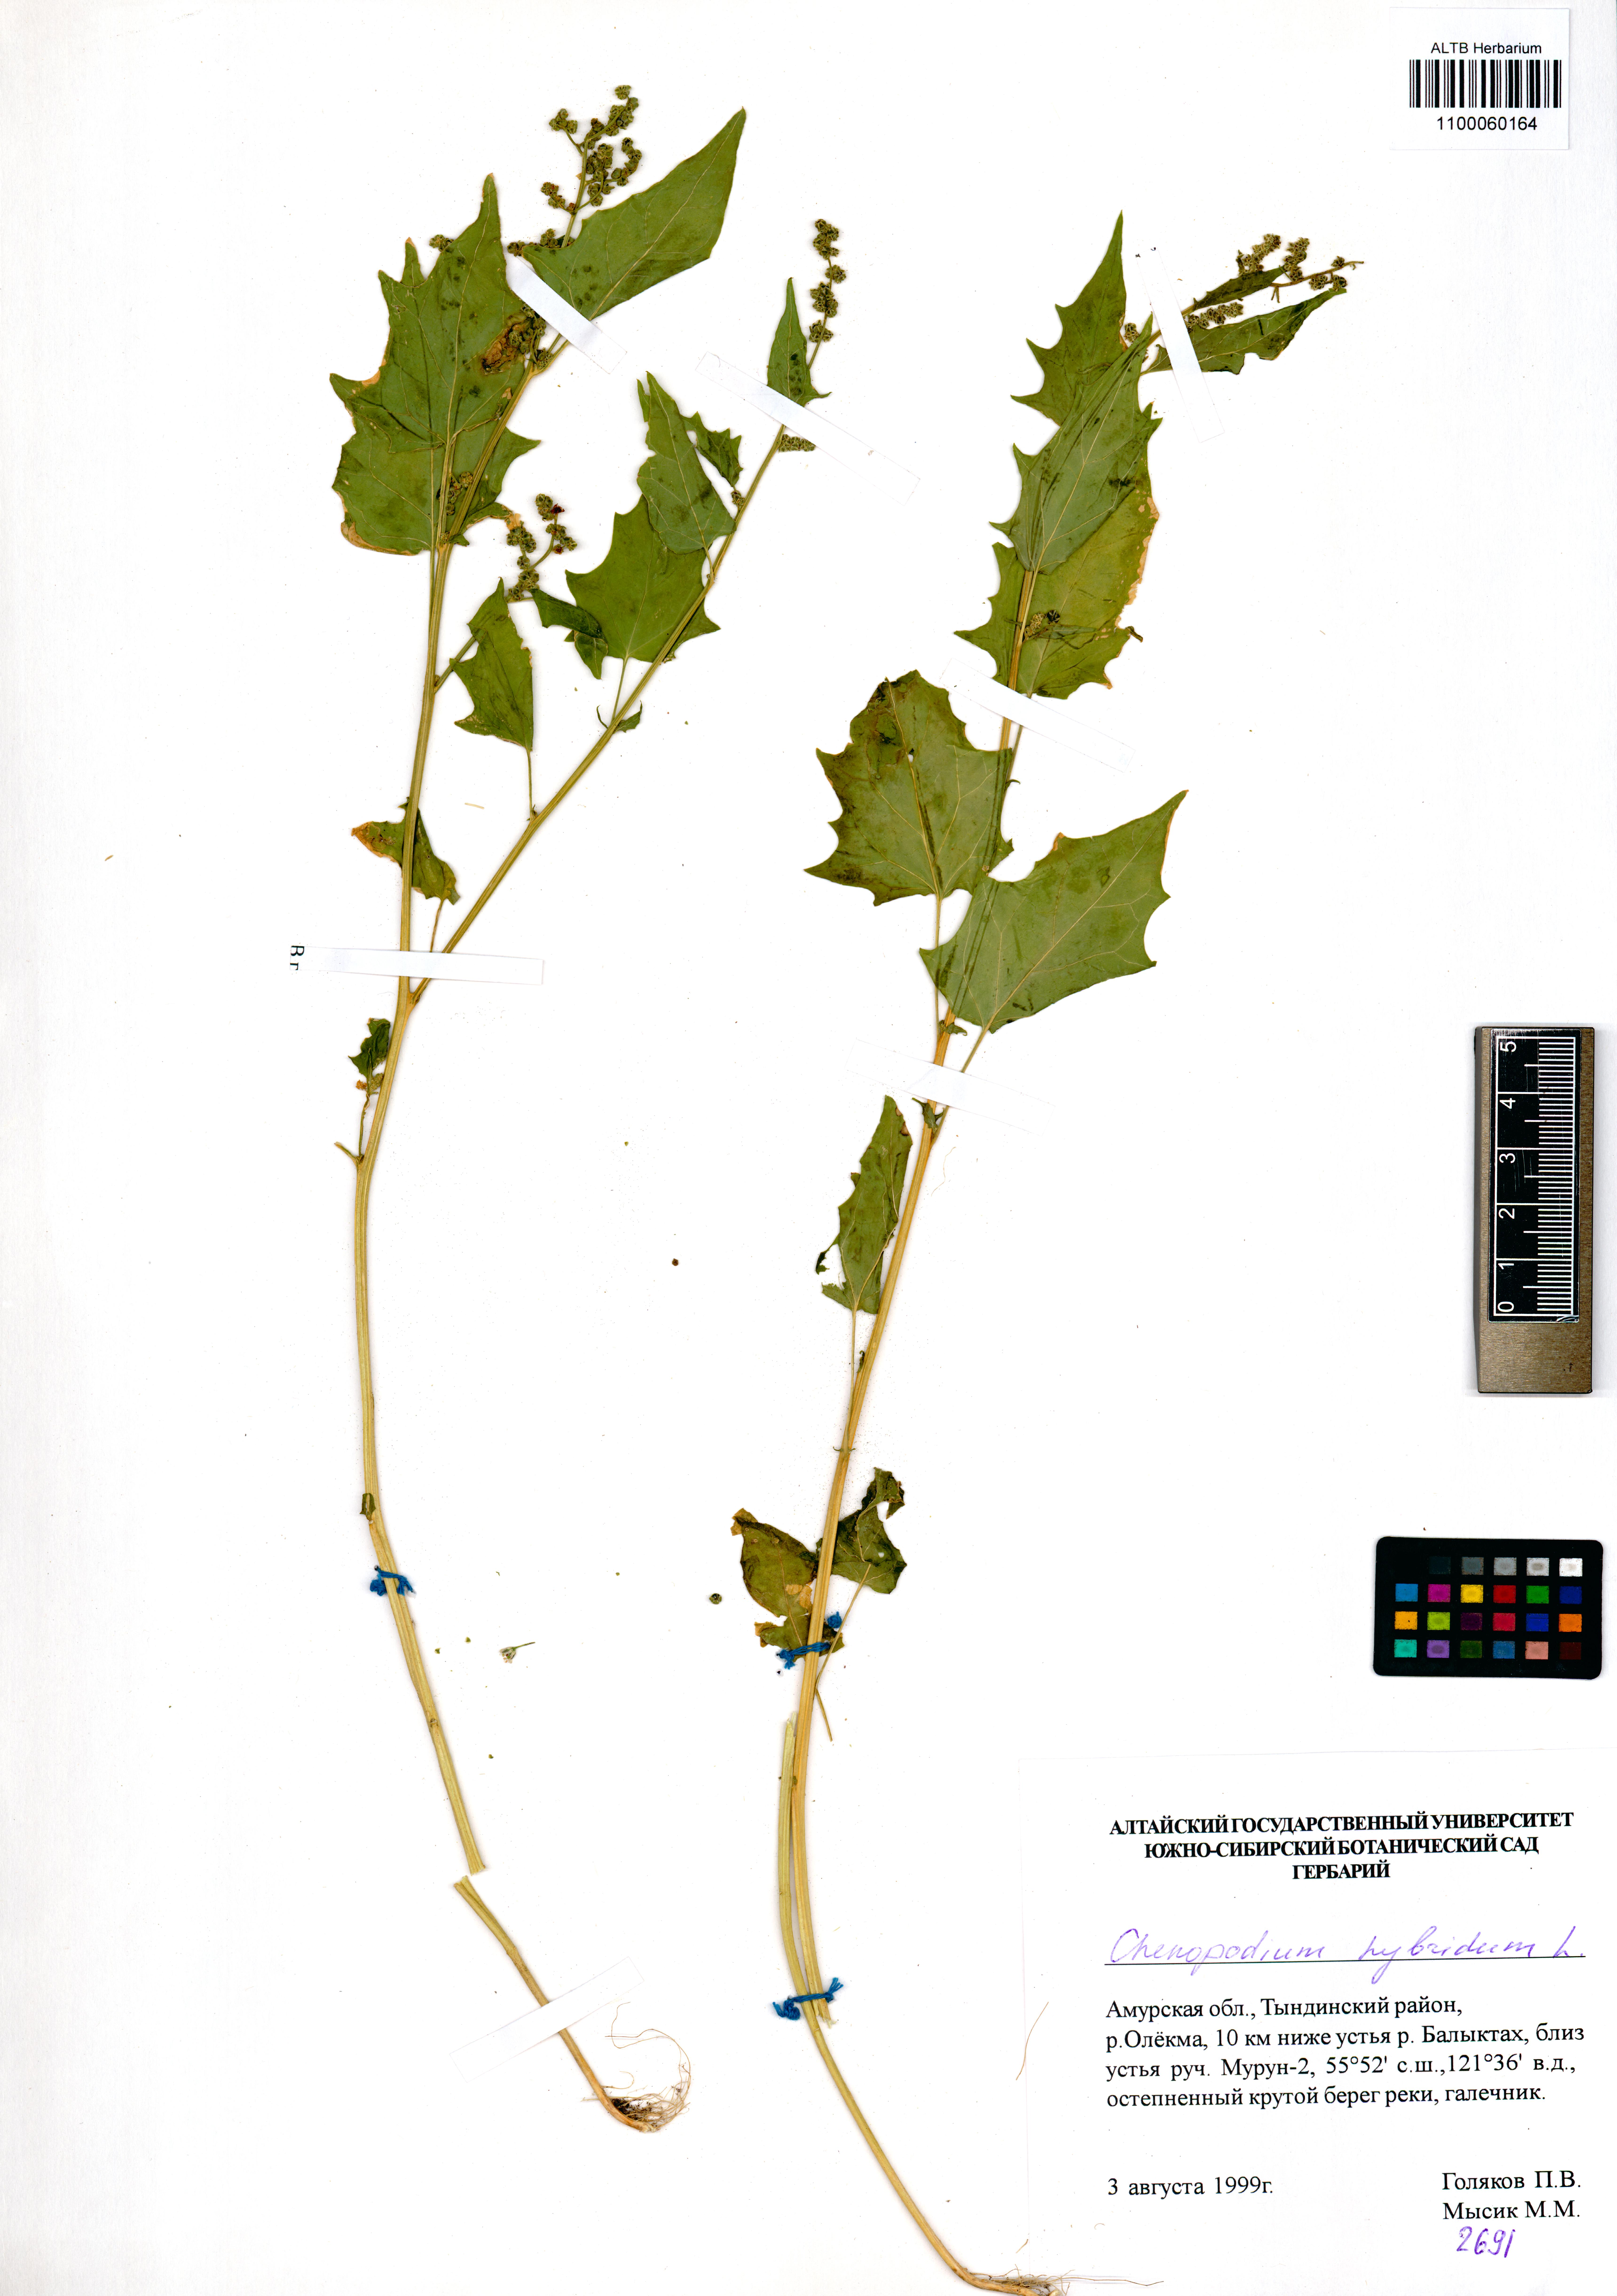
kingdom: Plantae
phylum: Tracheophyta
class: Magnoliopsida
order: Caryophyllales
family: Amaranthaceae
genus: Chenopodiastrum
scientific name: Chenopodiastrum hybridum
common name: Mapleleaf goosefoot
